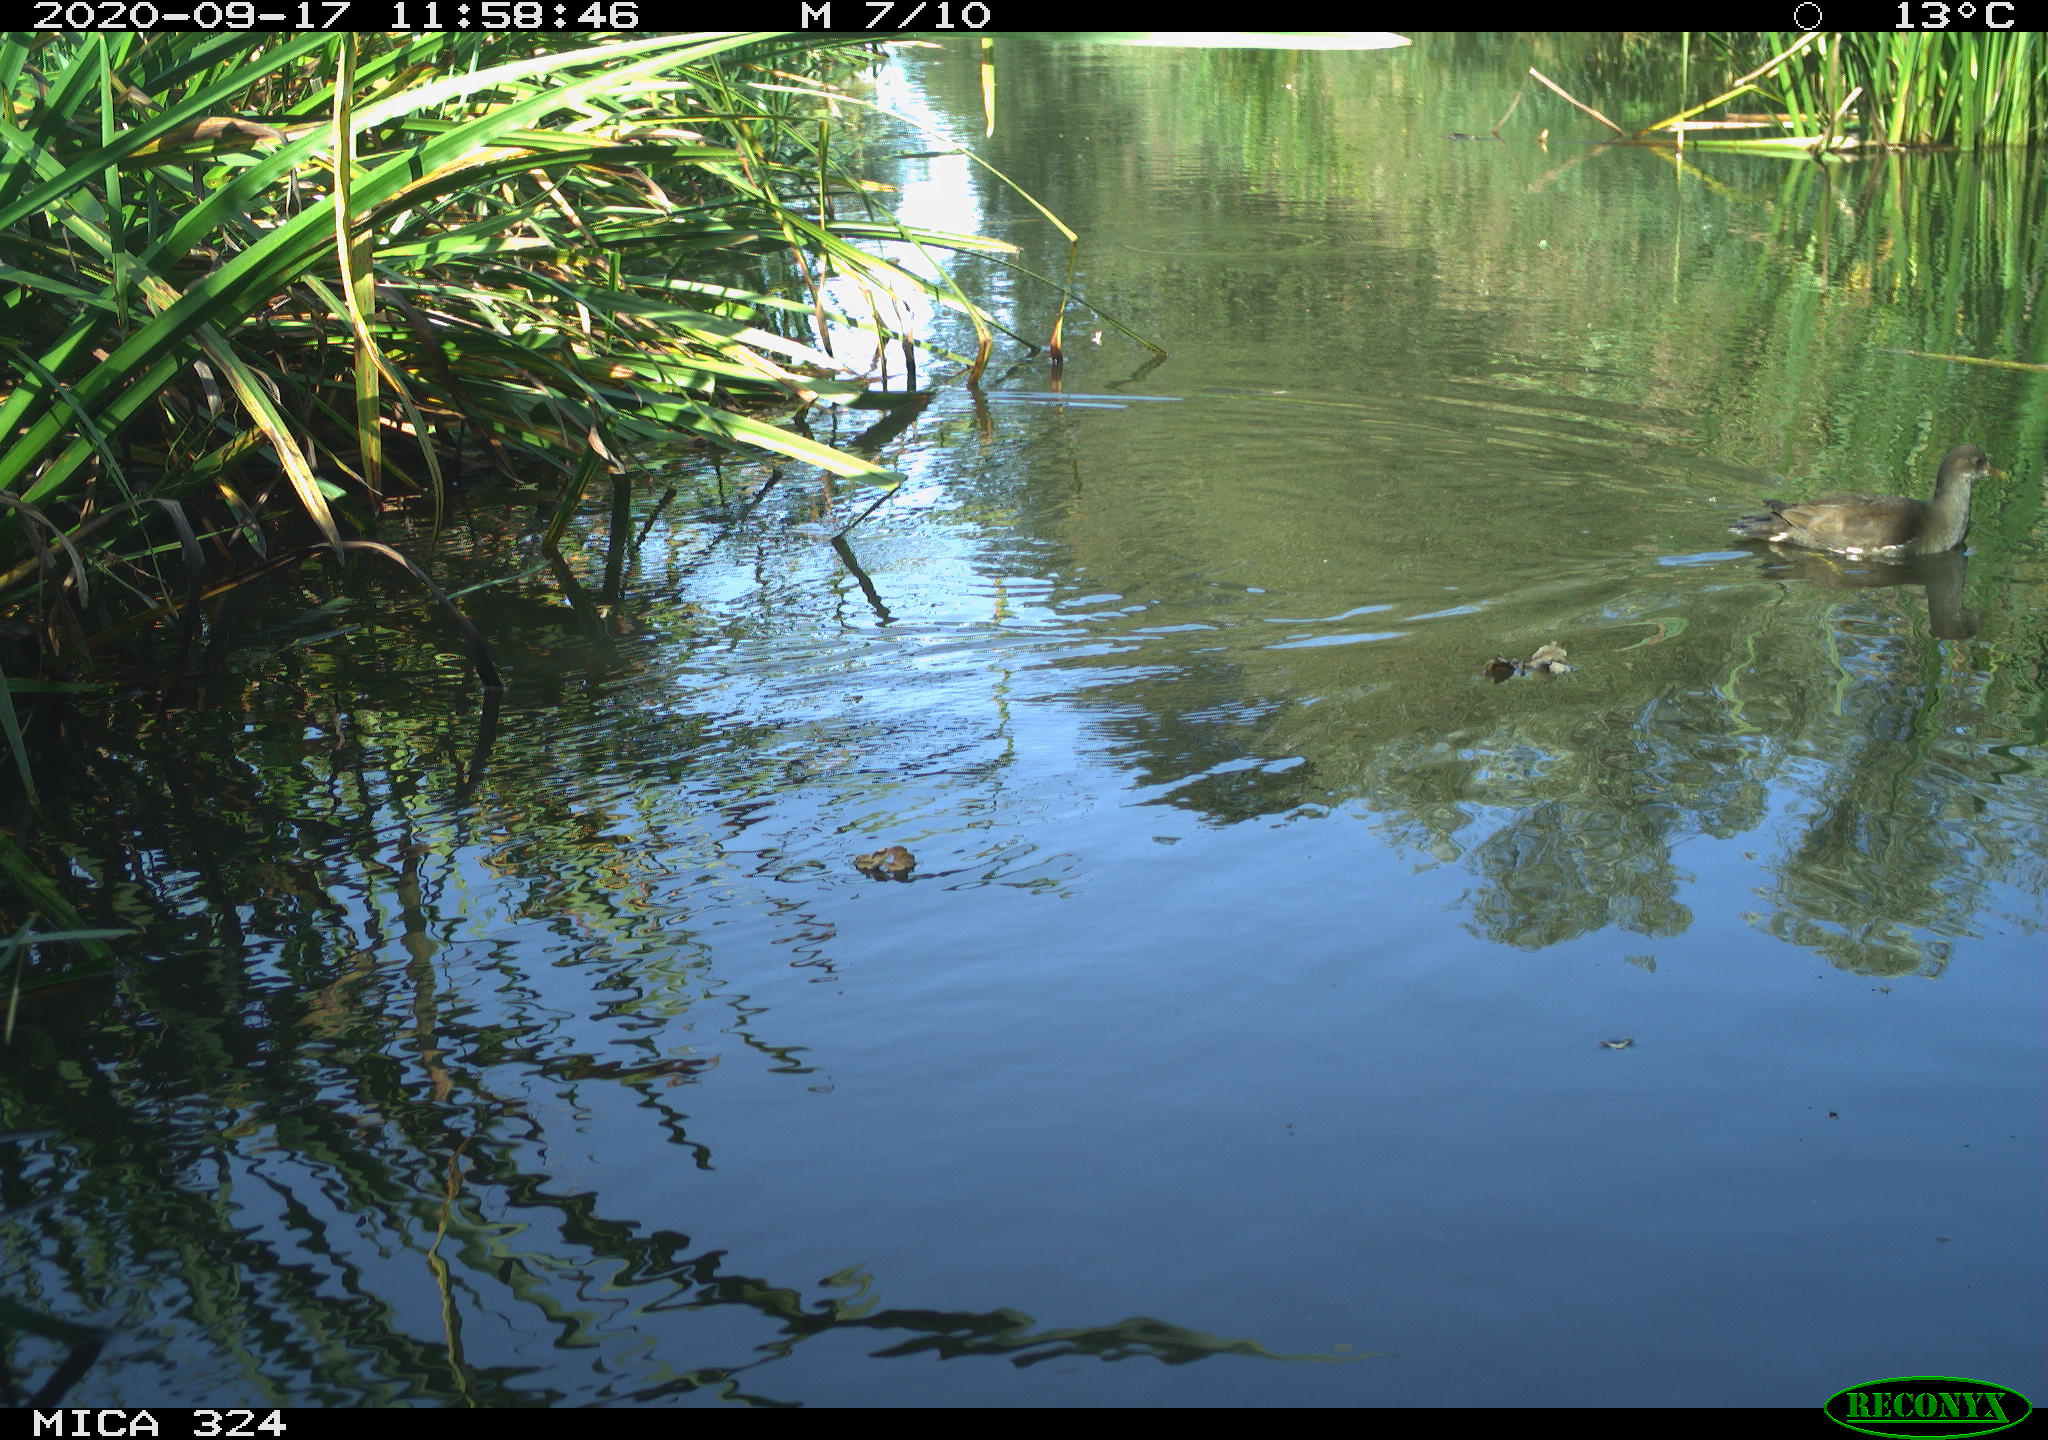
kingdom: Animalia
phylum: Chordata
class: Aves
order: Gruiformes
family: Rallidae
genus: Gallinula
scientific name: Gallinula chloropus
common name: Common moorhen
